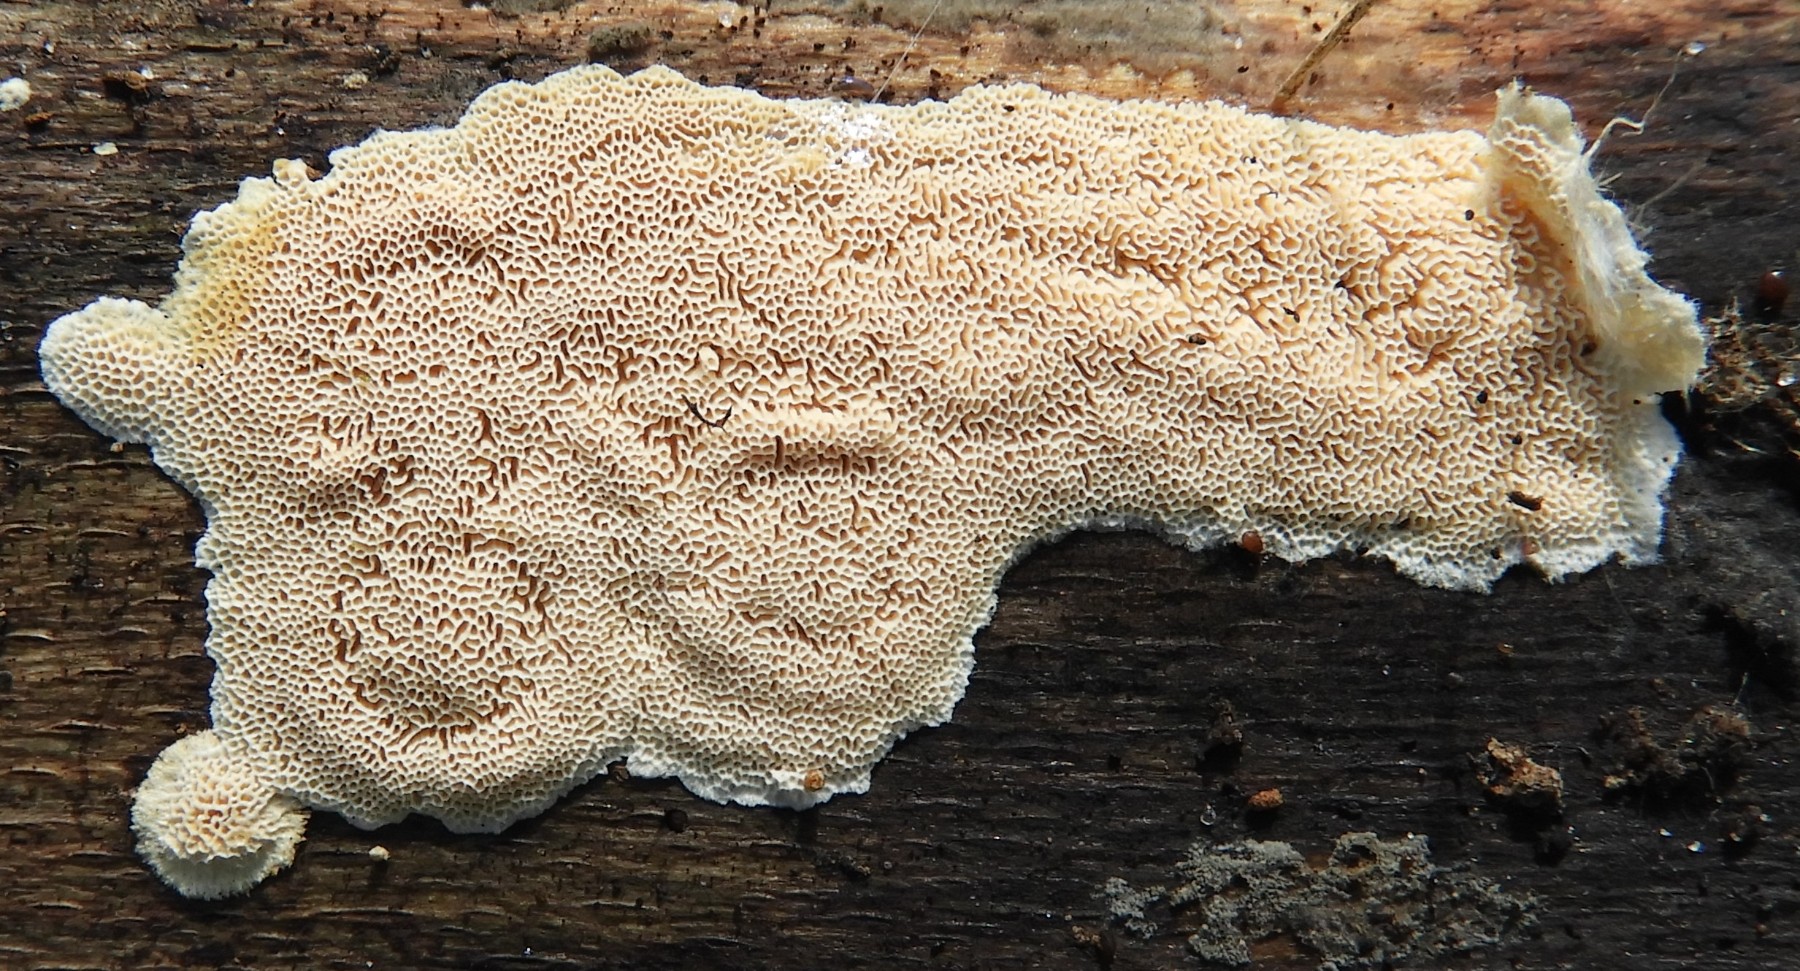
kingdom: Fungi
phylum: Basidiomycota
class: Agaricomycetes
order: Polyporales
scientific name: Polyporales
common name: poresvampordenen
